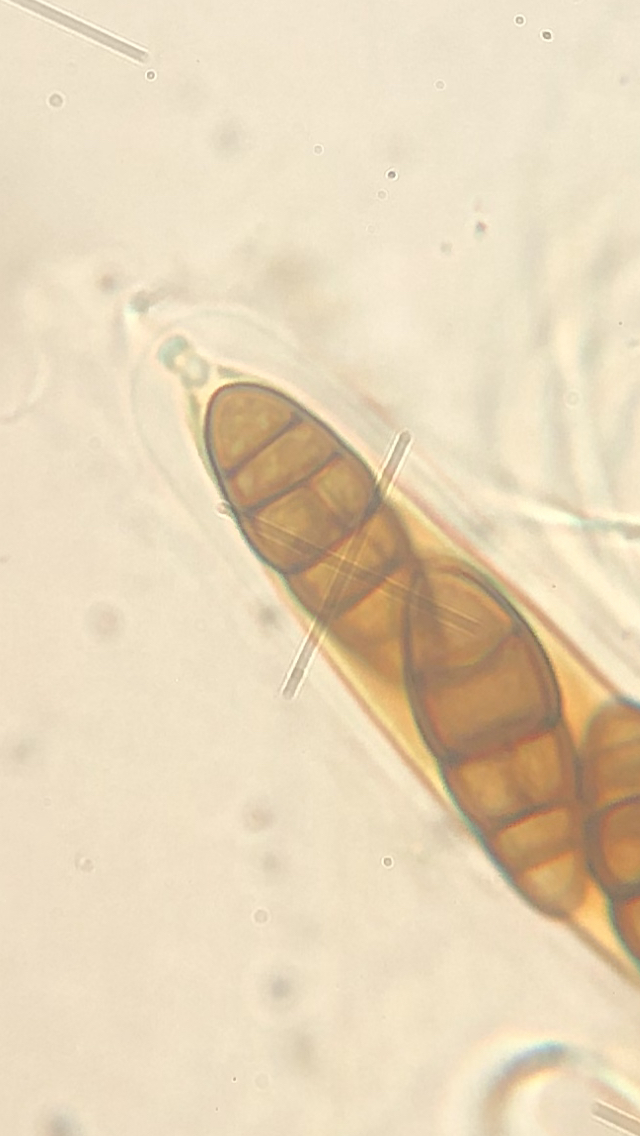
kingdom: Fungi
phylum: Ascomycota
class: Dothideomycetes
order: Pleosporales
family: Lophiostomataceae
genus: Lophiostoma
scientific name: Lophiostoma compressum
